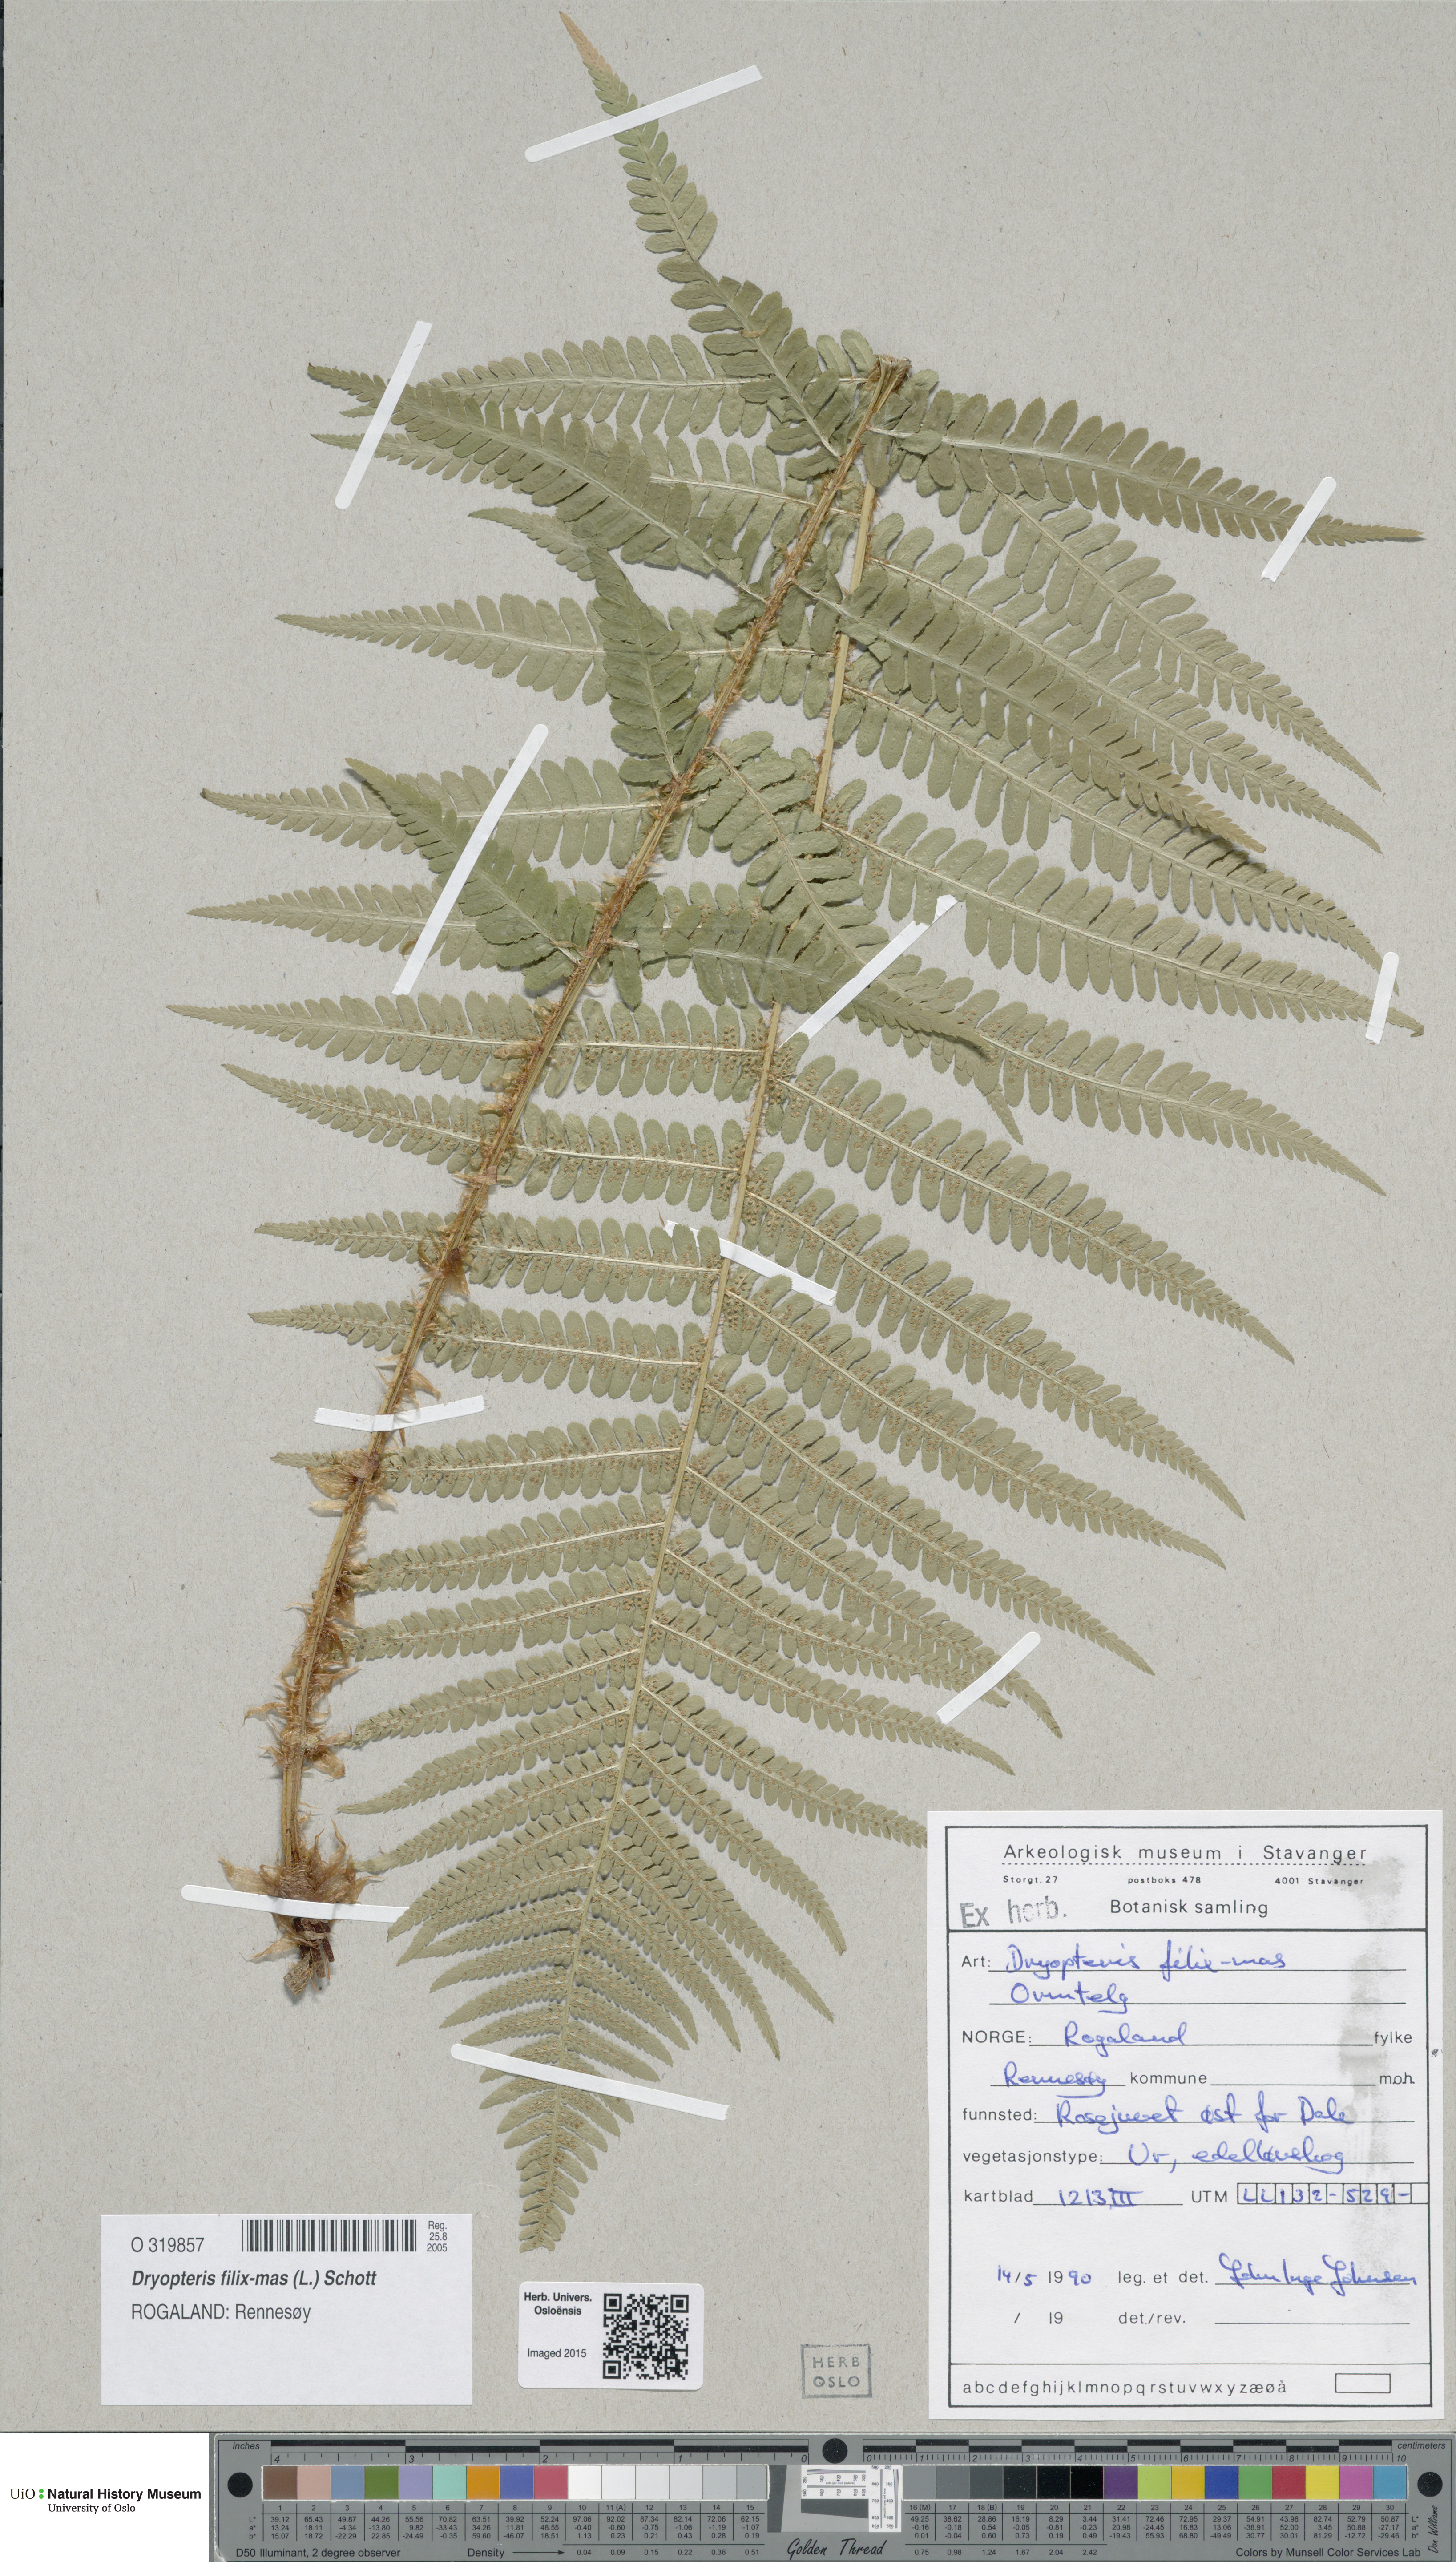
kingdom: Plantae
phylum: Tracheophyta
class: Polypodiopsida
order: Polypodiales
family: Dryopteridaceae
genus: Dryopteris
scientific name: Dryopteris filix-mas
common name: Male fern
